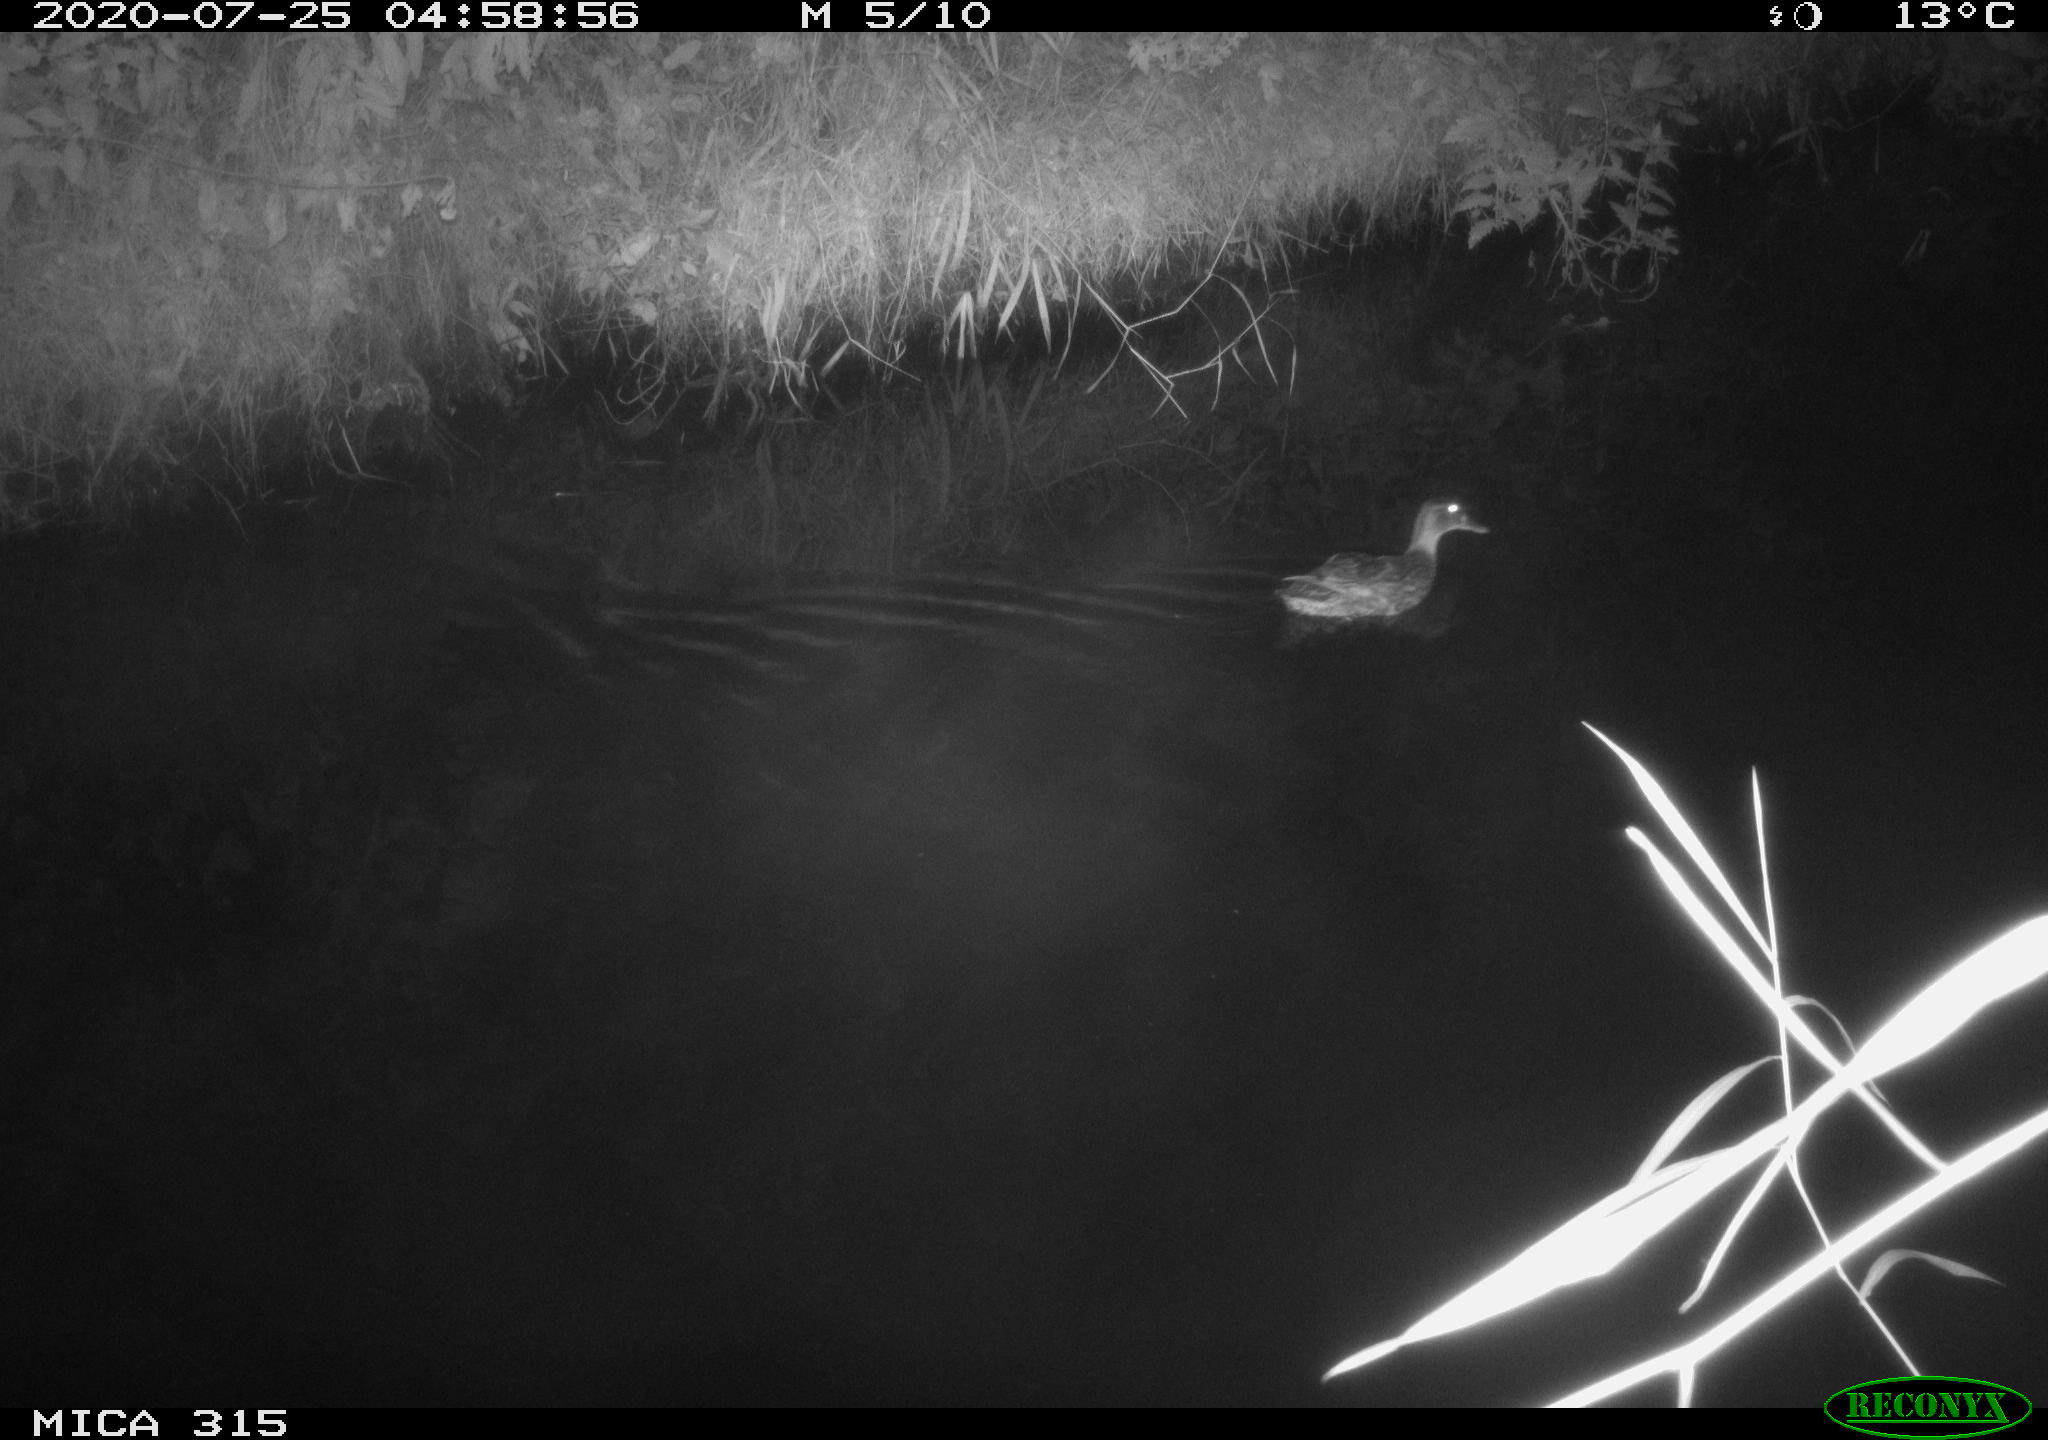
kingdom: Animalia
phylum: Chordata
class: Aves
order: Anseriformes
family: Anatidae
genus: Anas
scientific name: Anas platyrhynchos
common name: Mallard
